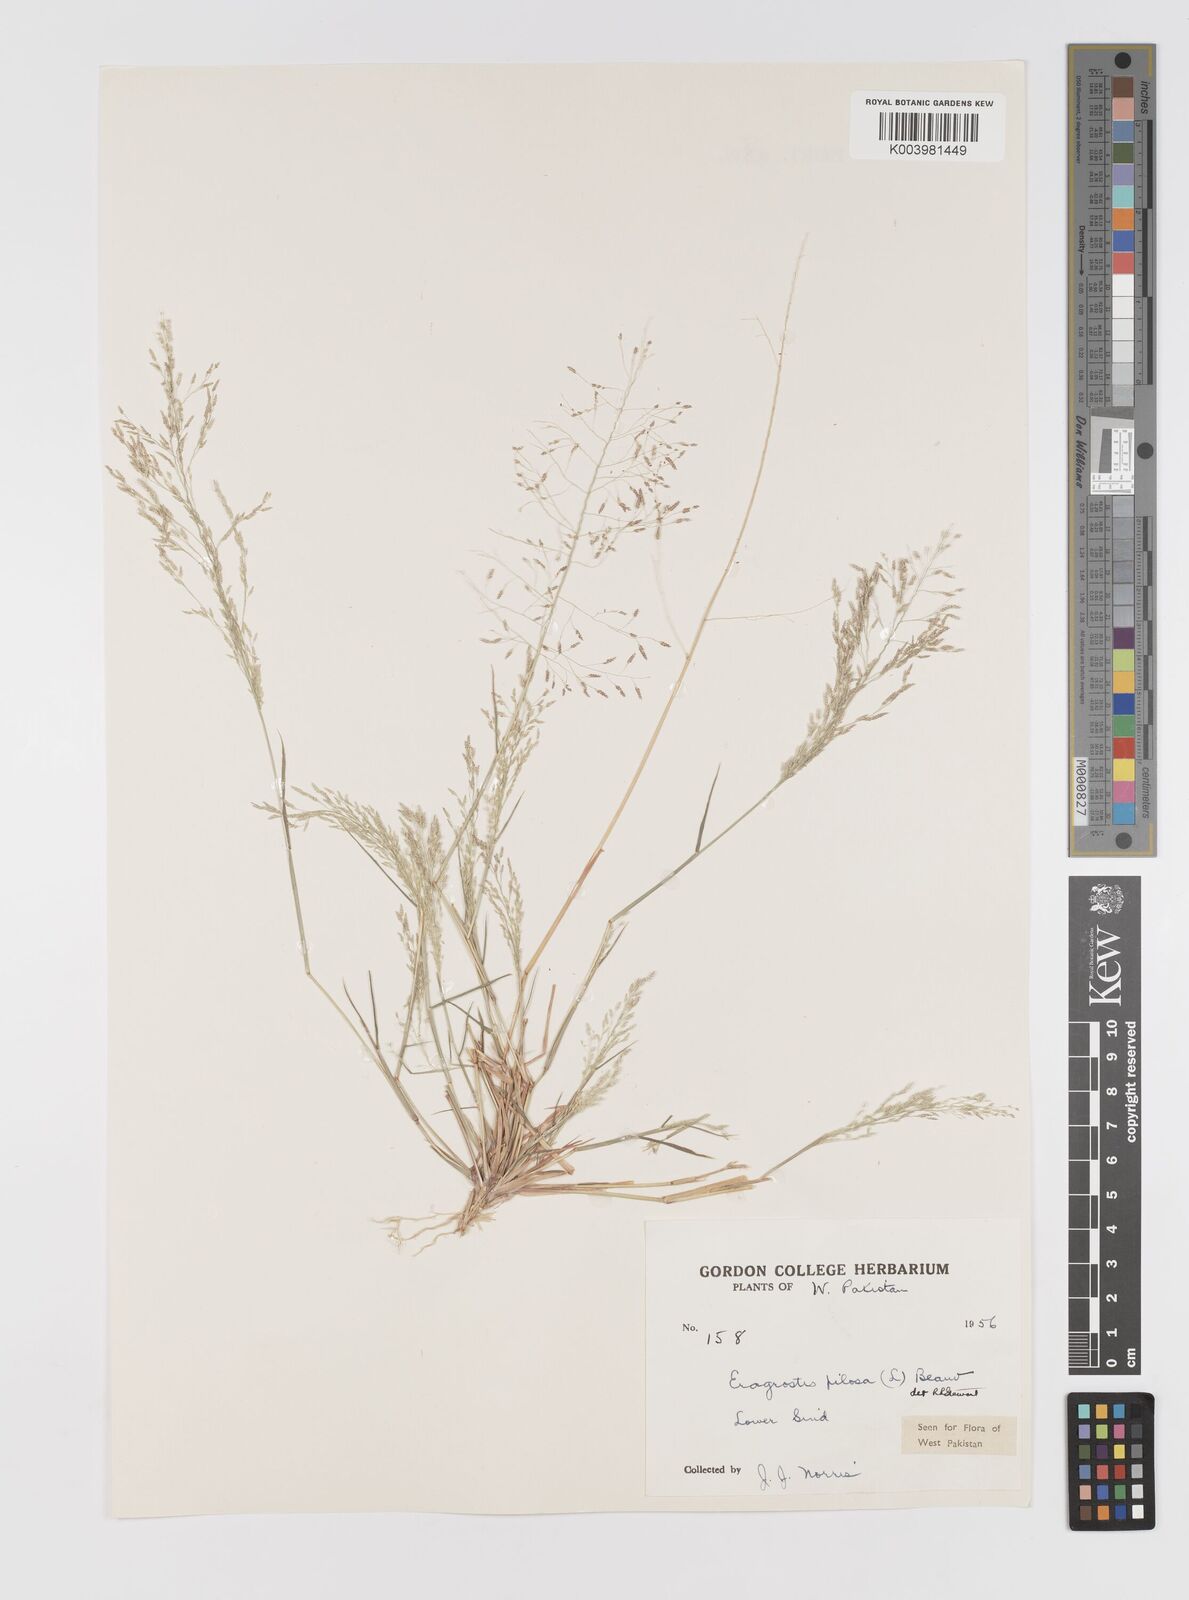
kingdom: Plantae
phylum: Tracheophyta
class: Liliopsida
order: Poales
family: Poaceae
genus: Eragrostis
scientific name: Eragrostis pilosa
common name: Indian lovegrass
